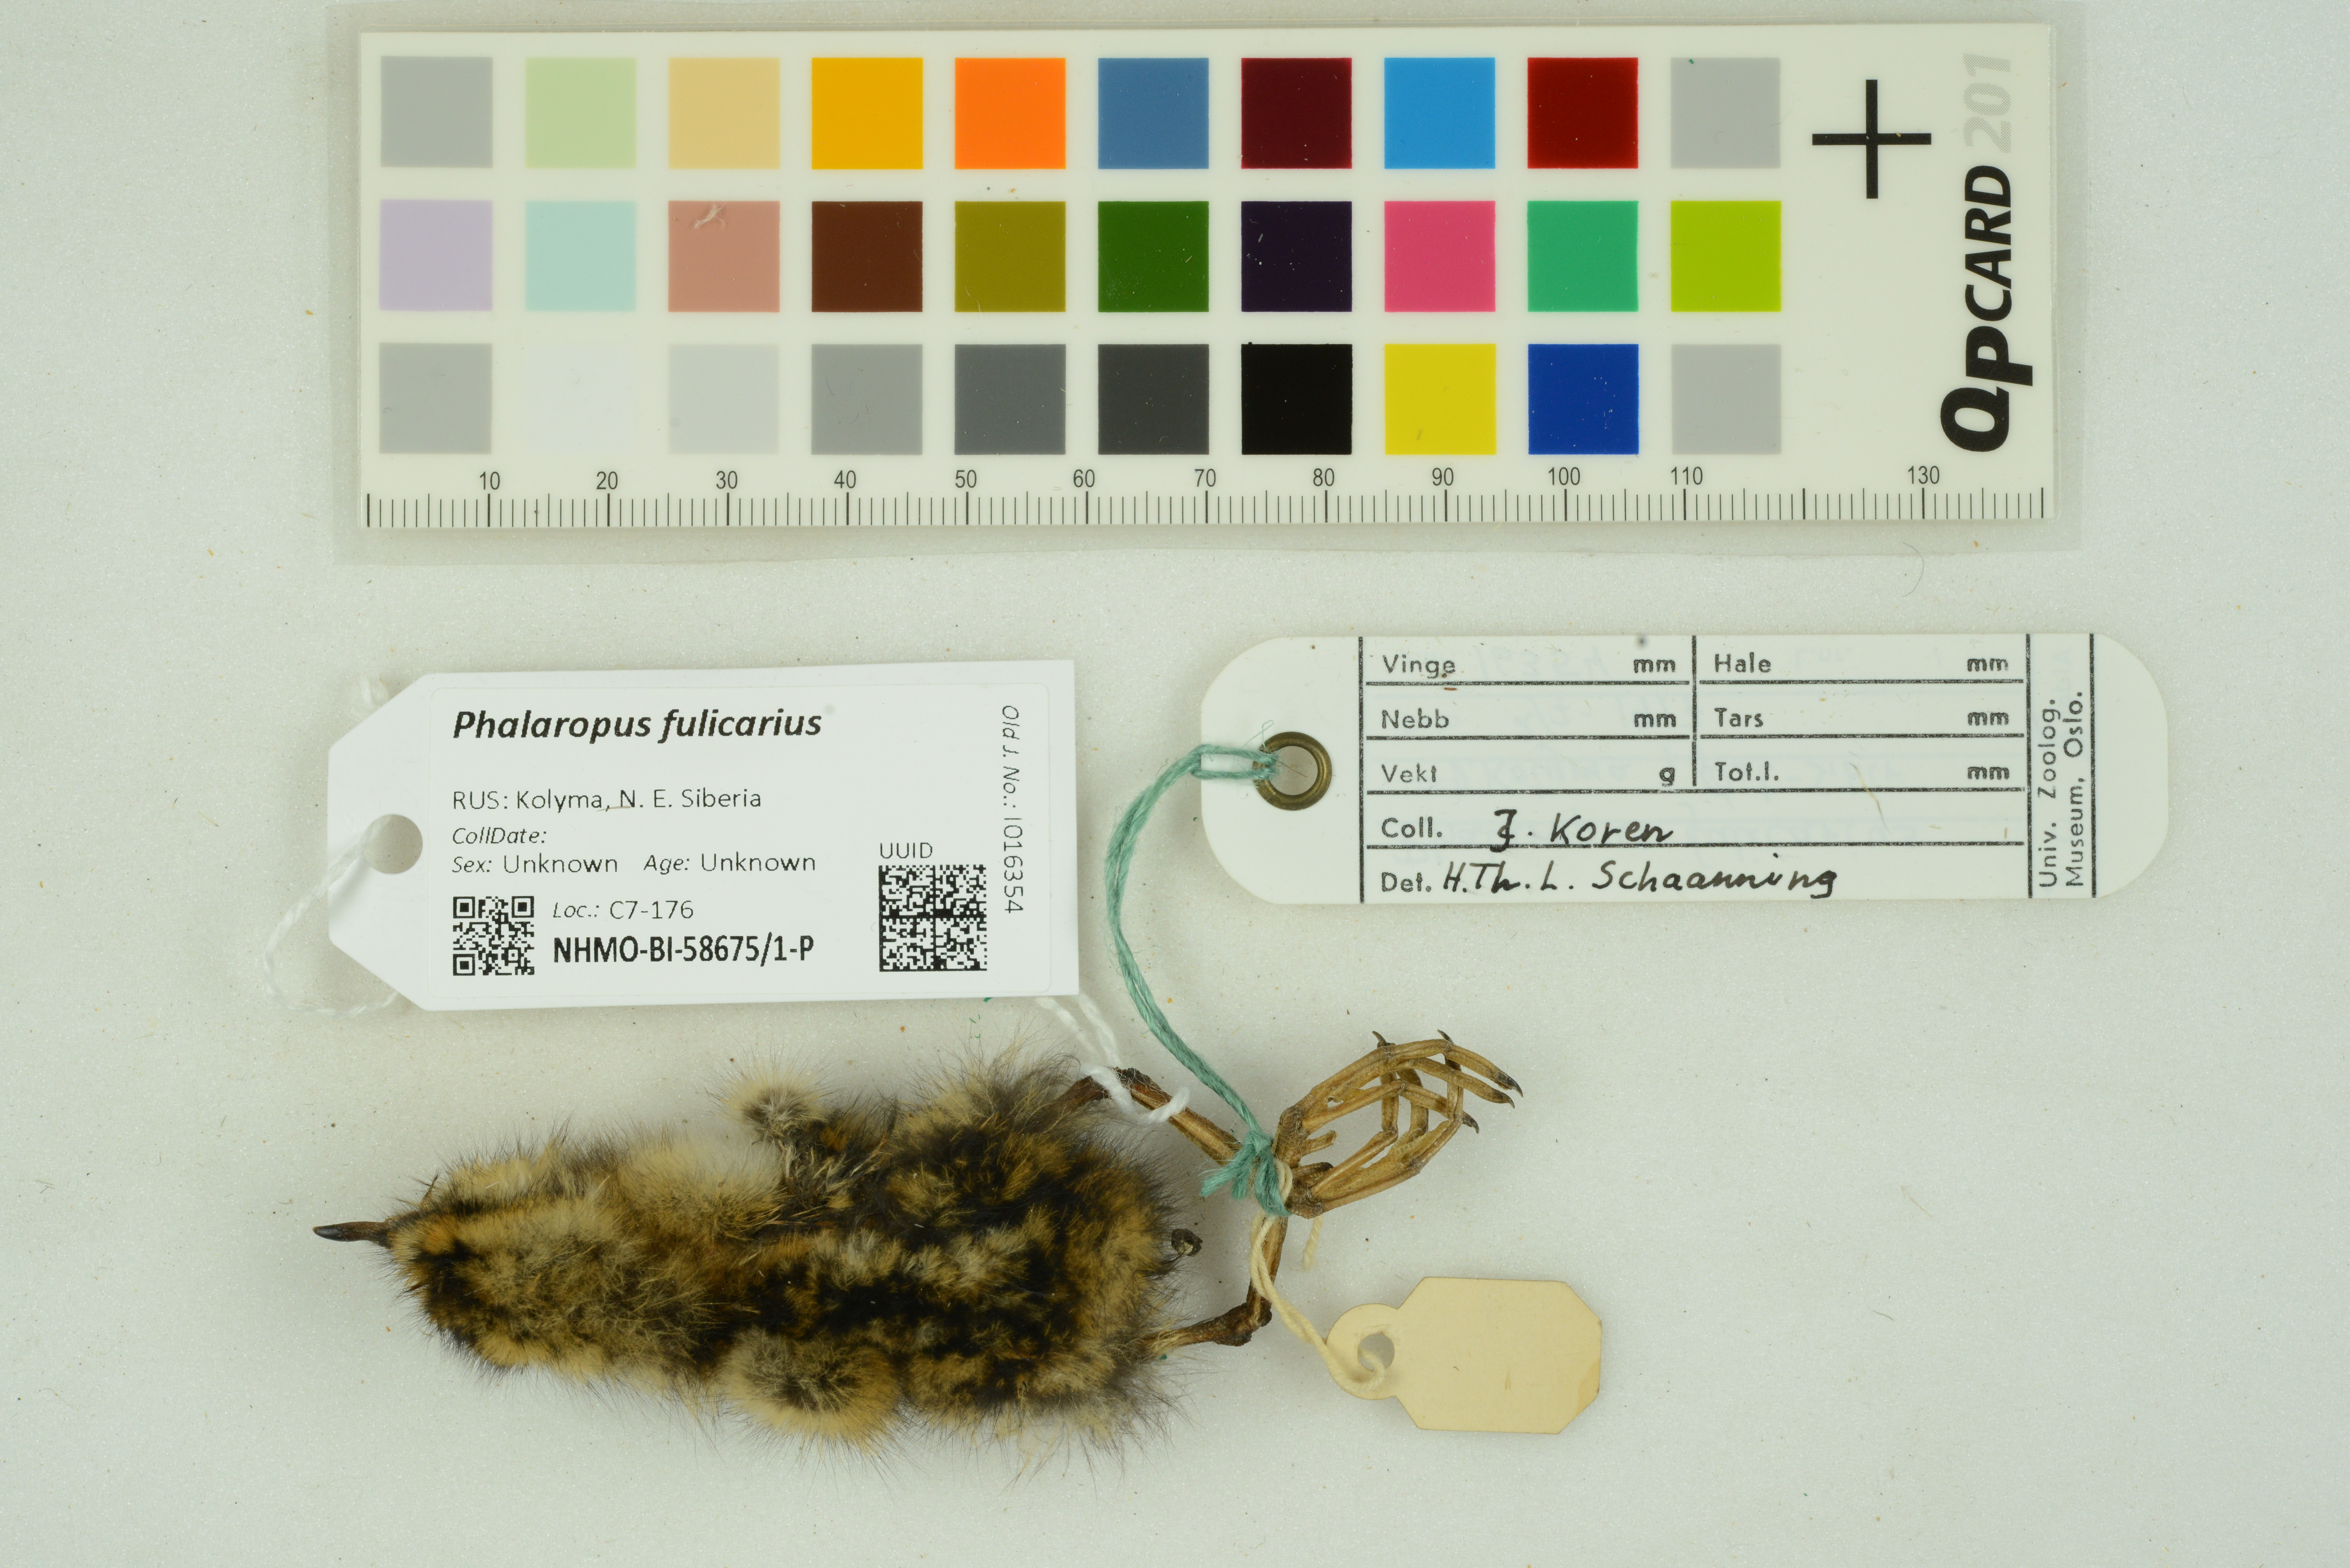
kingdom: Animalia
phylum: Chordata
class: Aves
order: Charadriiformes
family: Scolopacidae
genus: Phalaropus
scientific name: Phalaropus fulicarius
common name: Red phalarope
